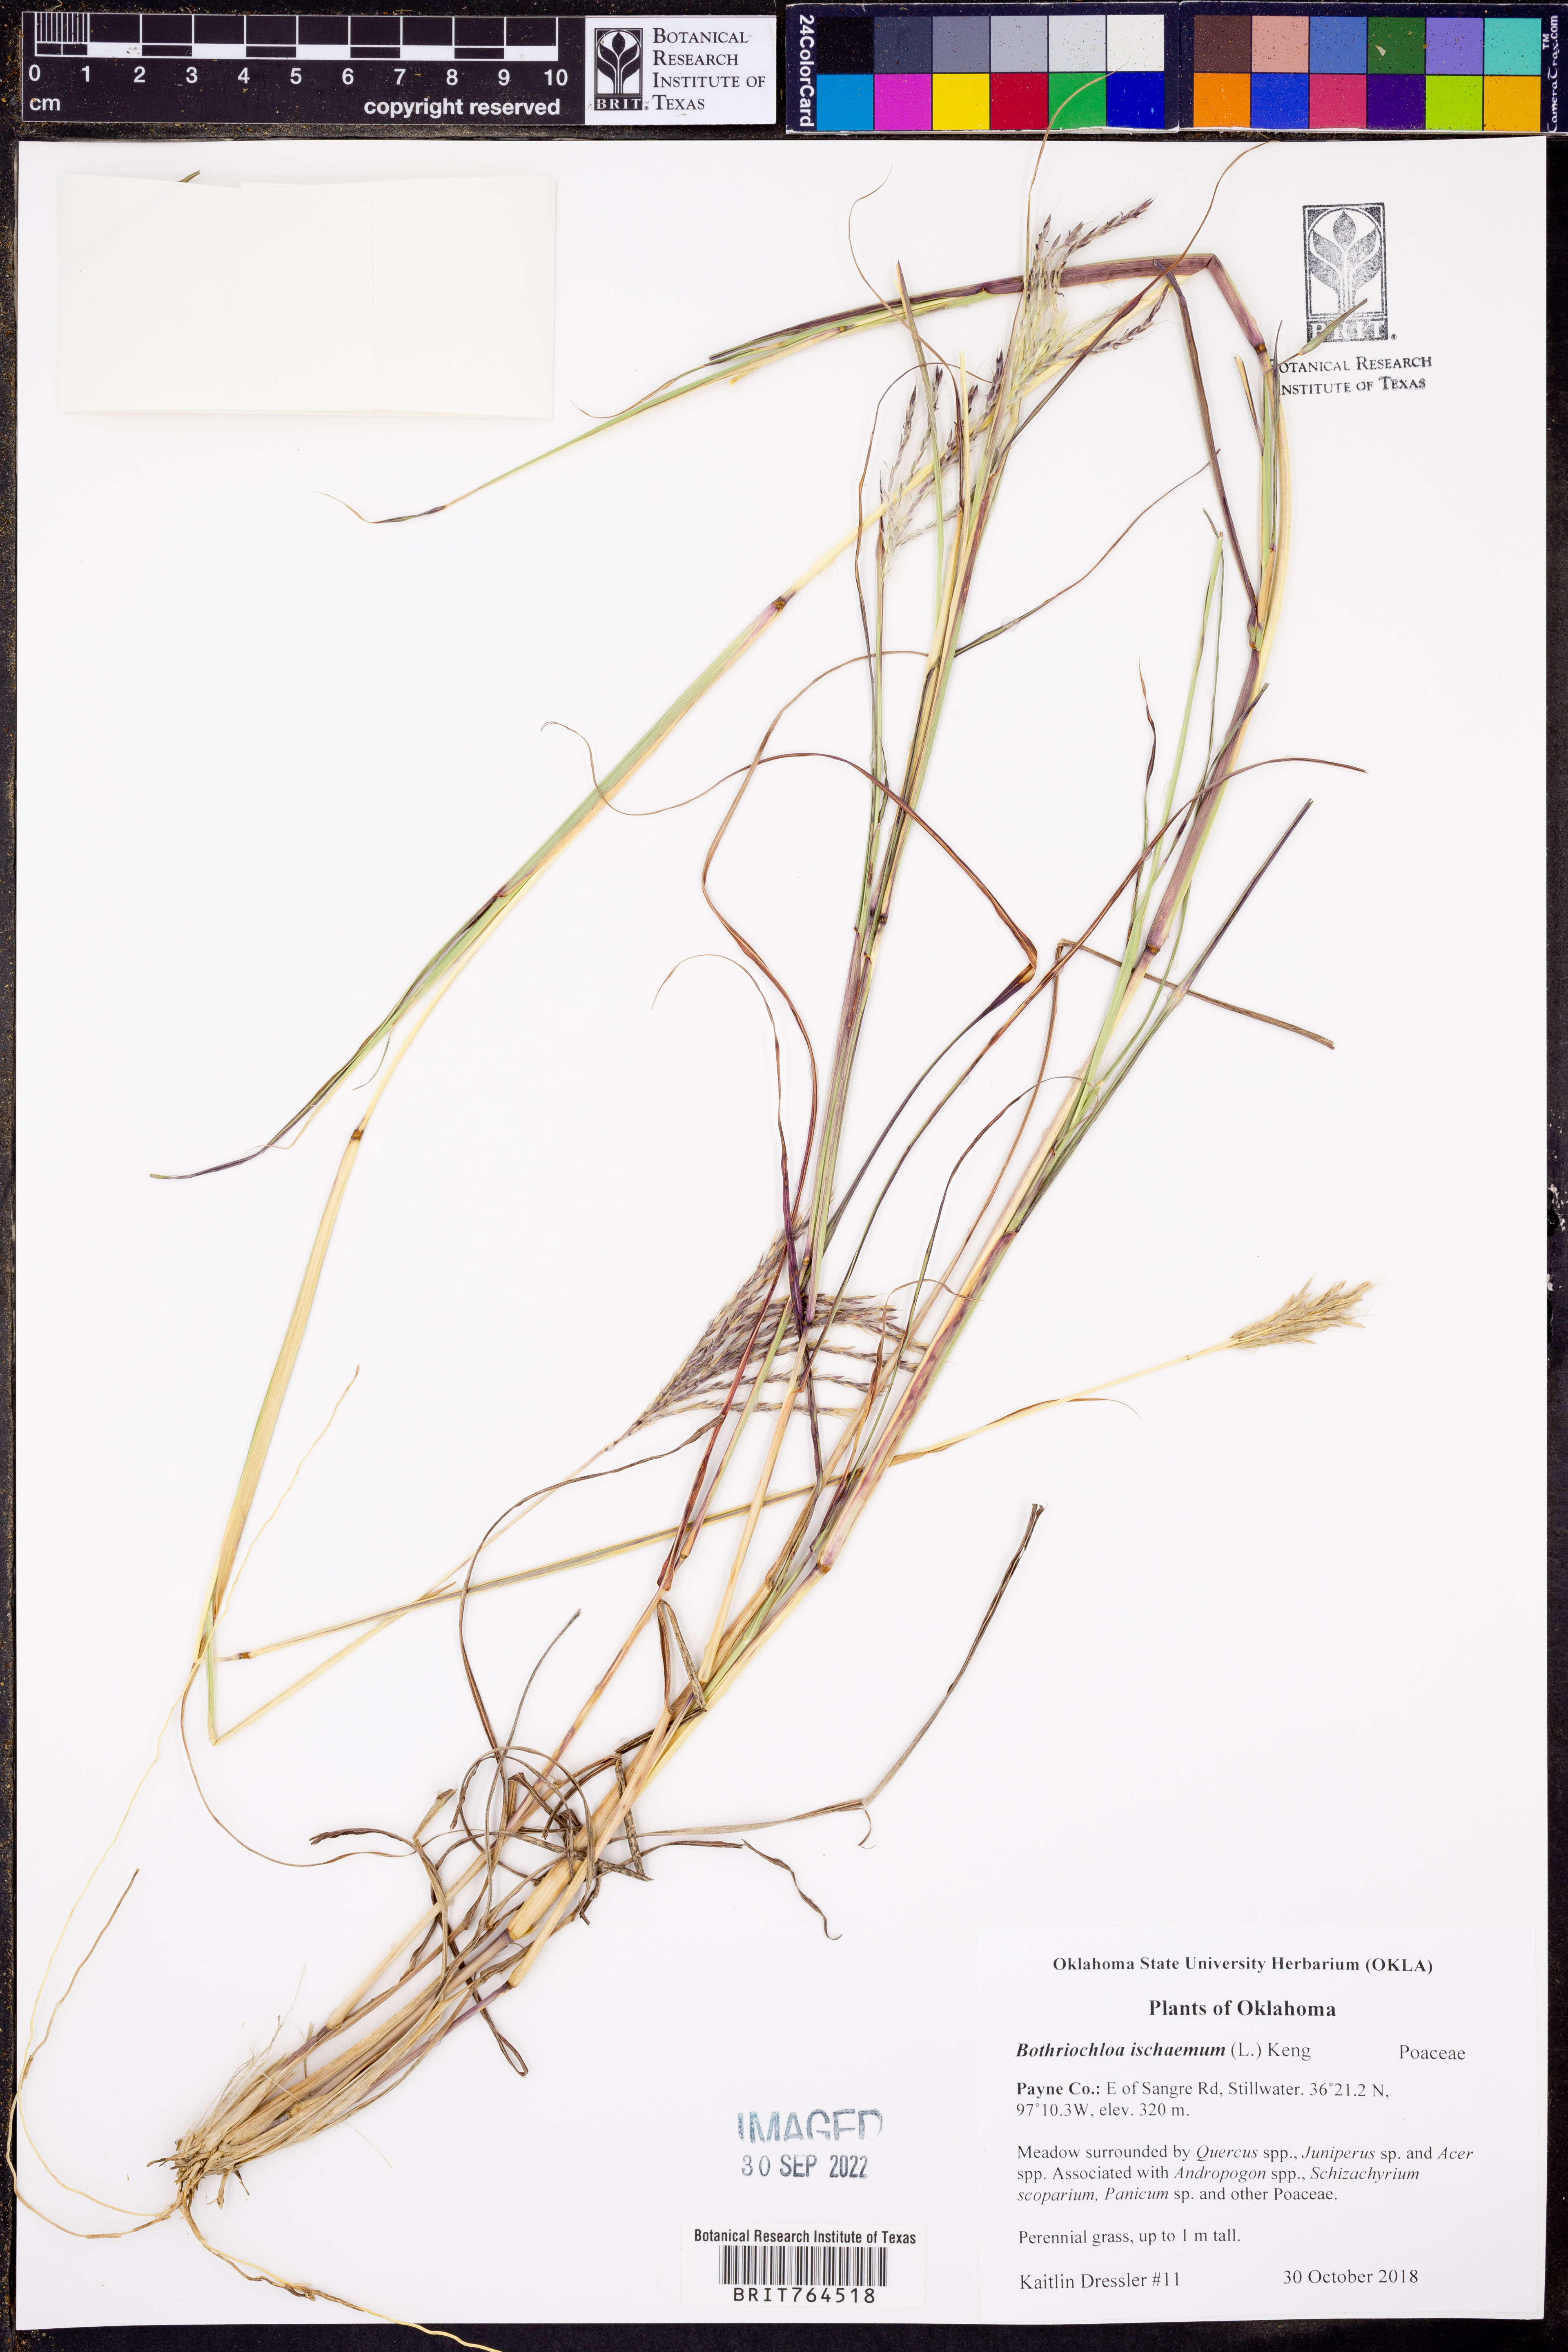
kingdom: Plantae
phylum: Tracheophyta
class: Liliopsida
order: Poales
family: Poaceae
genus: Bothriochloa
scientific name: Bothriochloa ischaemum
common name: Yellow bluestem
